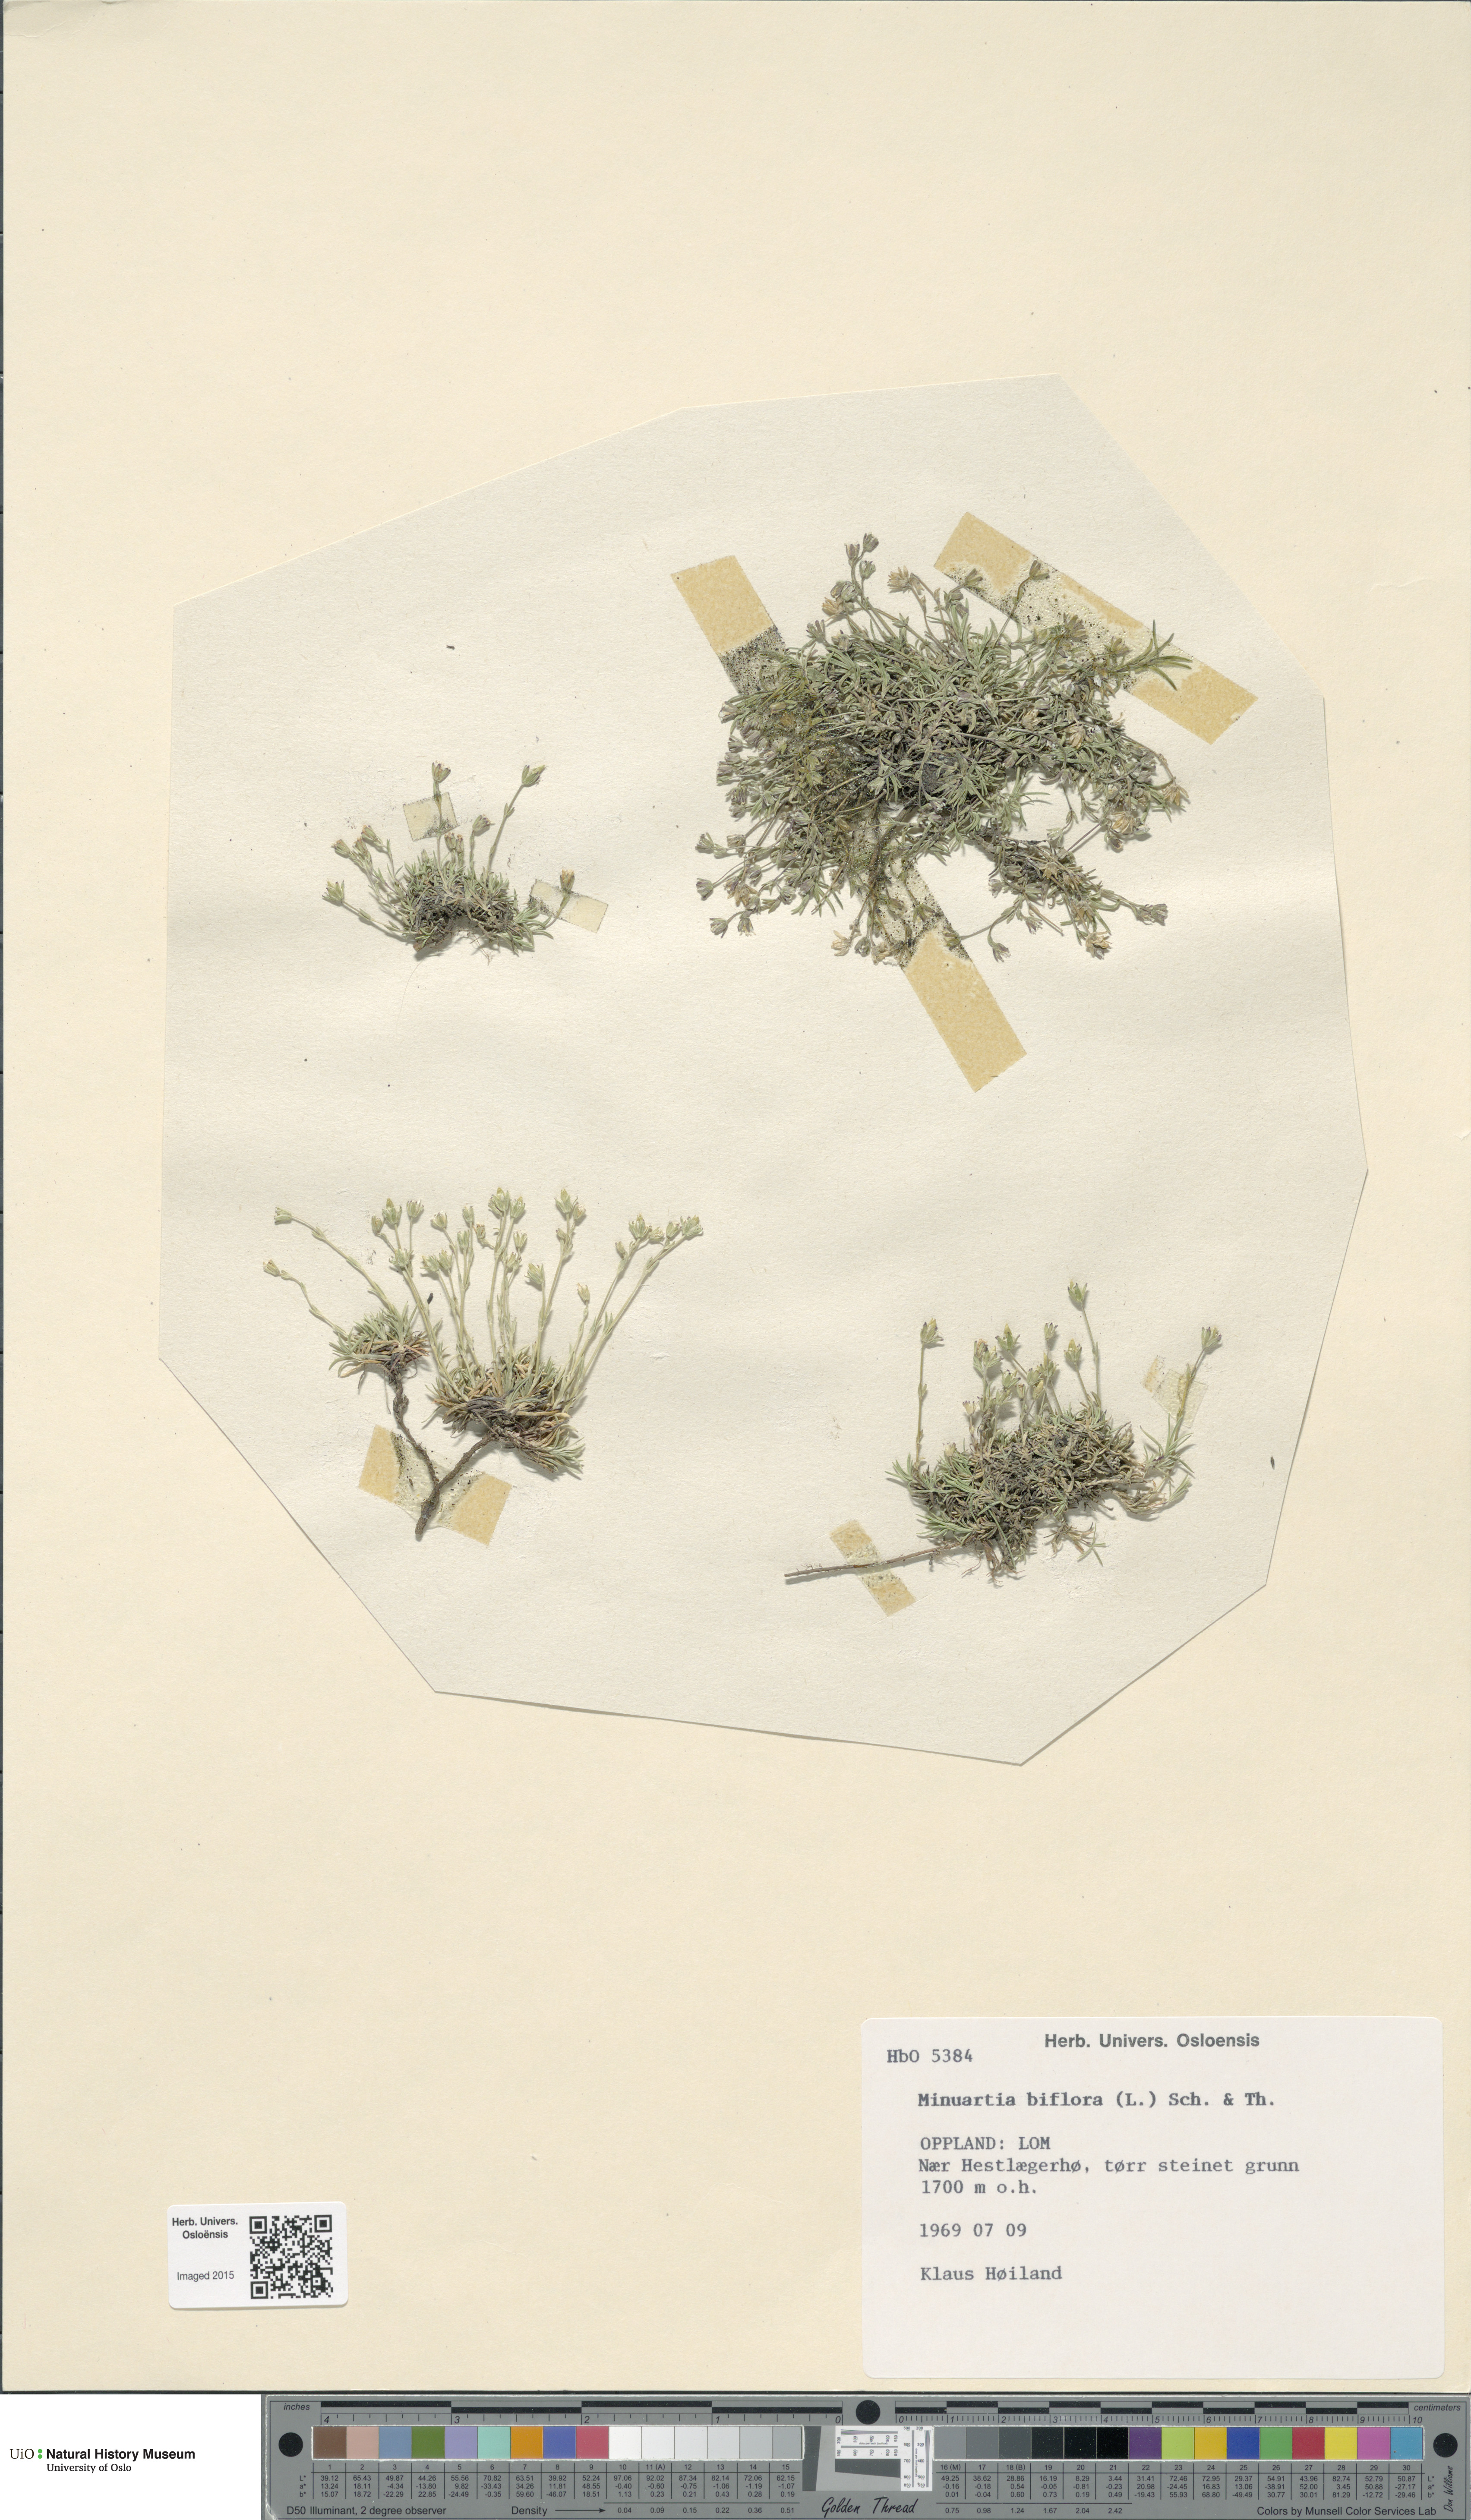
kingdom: Plantae
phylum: Tracheophyta
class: Magnoliopsida
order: Caryophyllales
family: Caryophyllaceae
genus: Cherleria
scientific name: Cherleria biflora
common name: Mountain sandwort
